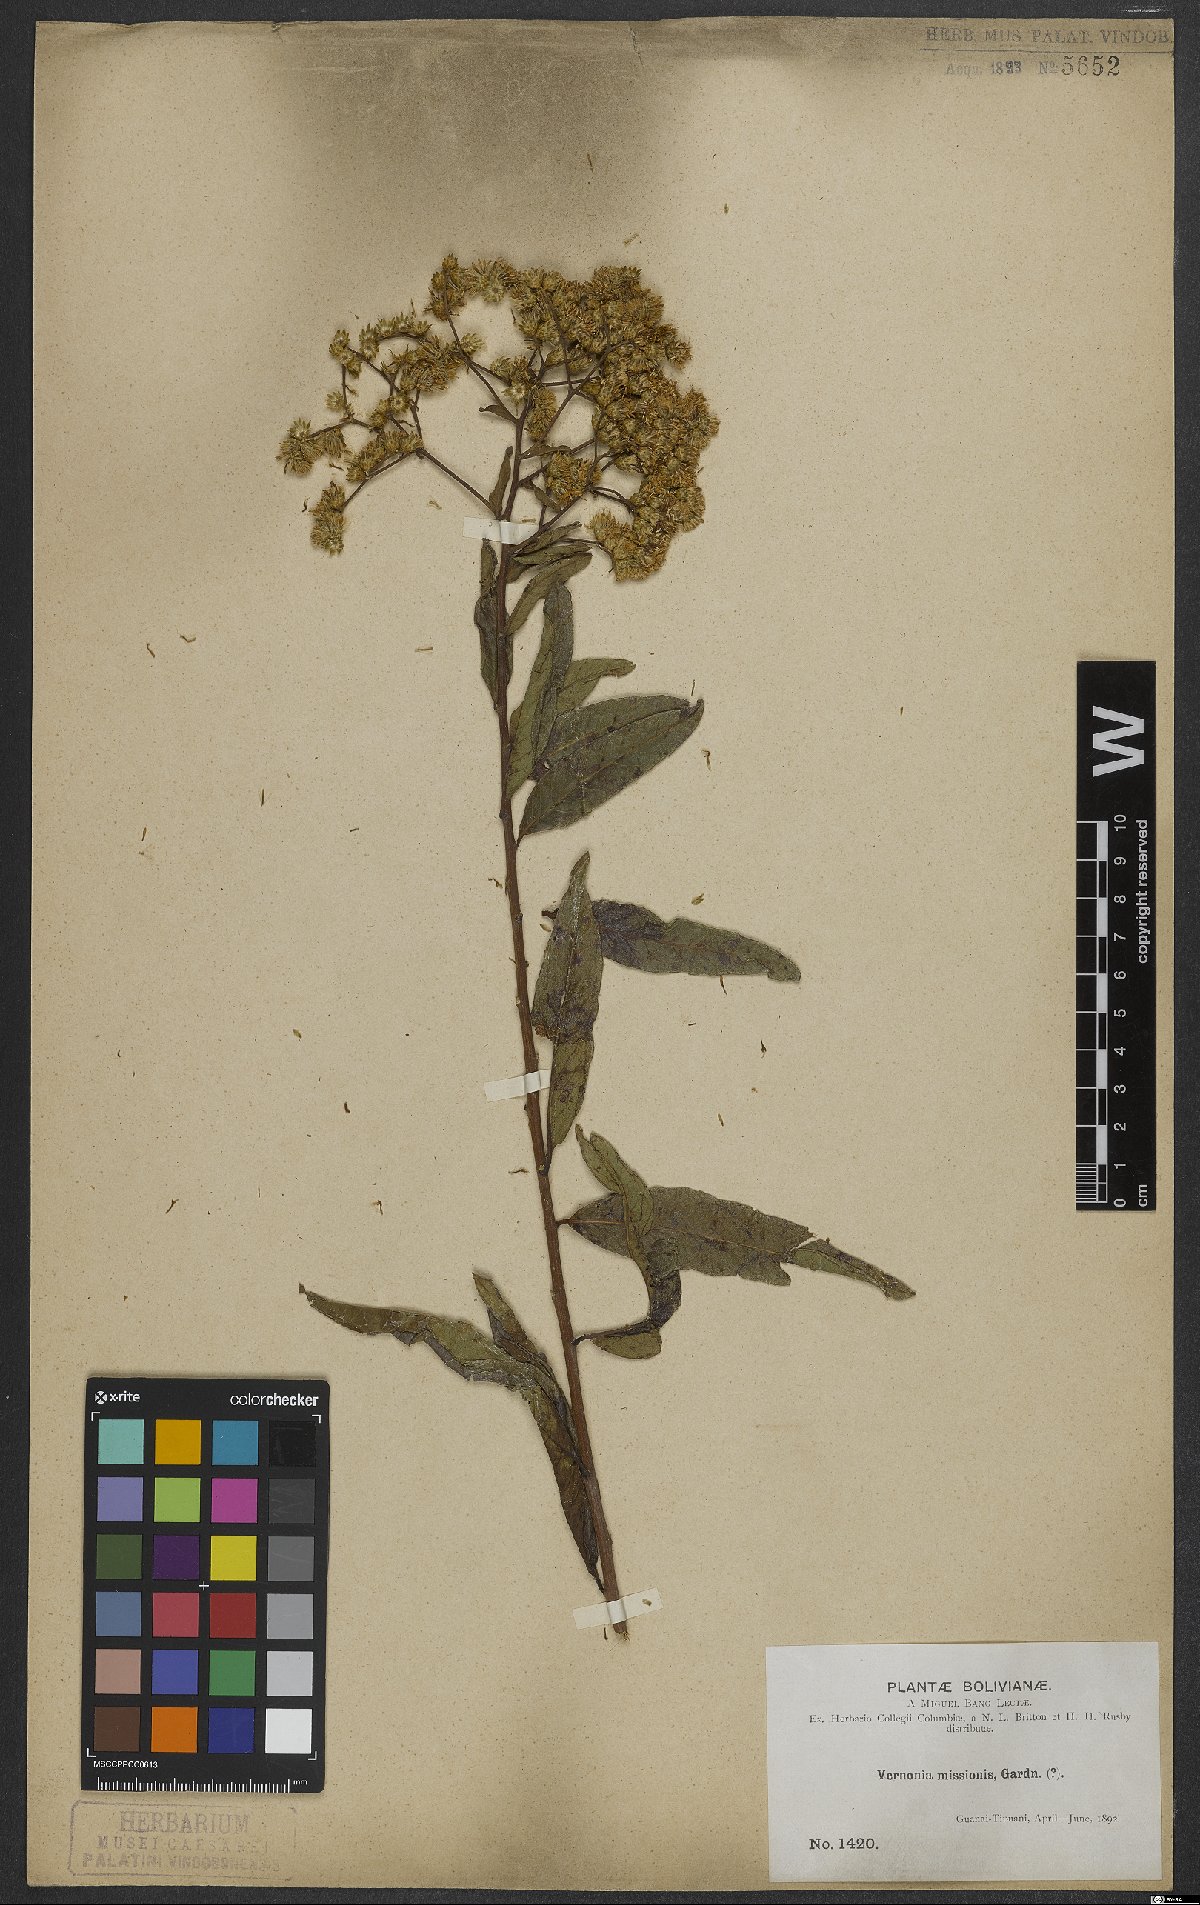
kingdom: Plantae
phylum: Tracheophyta
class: Magnoliopsida
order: Asterales
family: Asteraceae
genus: Vernonanthura
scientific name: Vernonanthura cymosa
